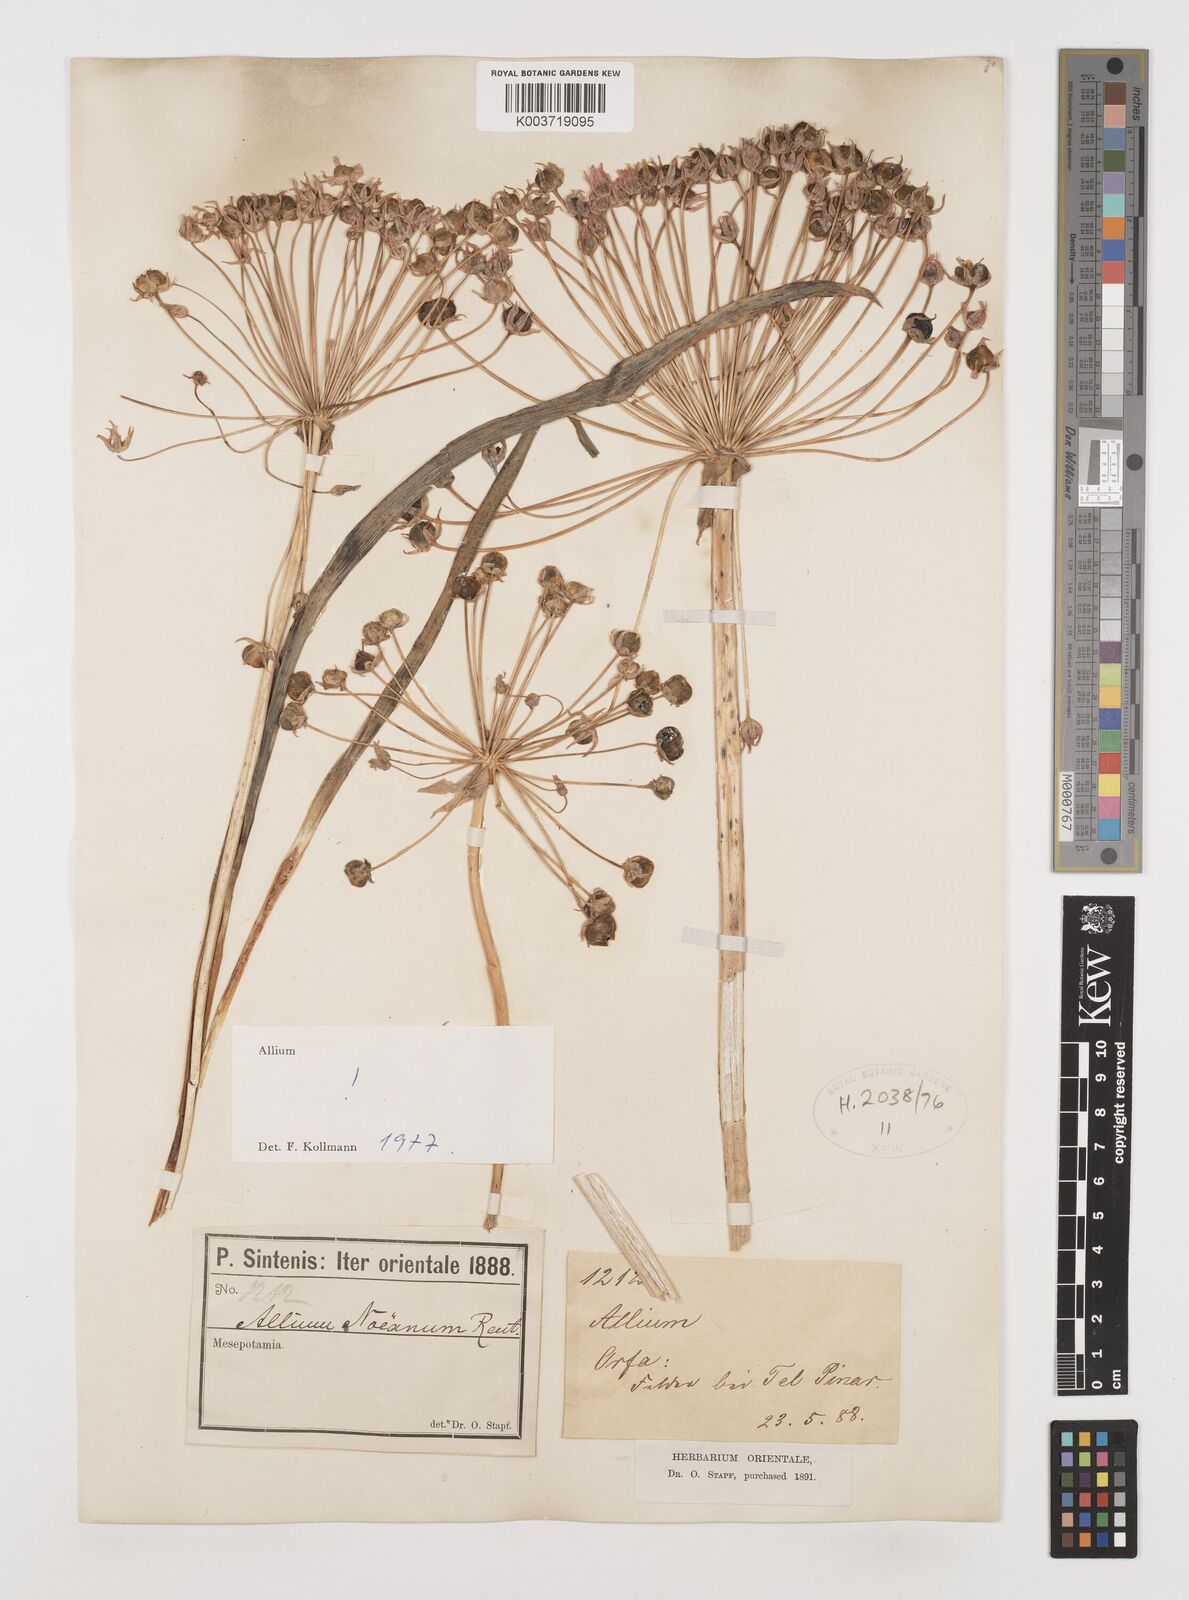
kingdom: Plantae
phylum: Tracheophyta
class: Liliopsida
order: Asparagales
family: Amaryllidaceae
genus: Allium
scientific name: Allium noeanum
